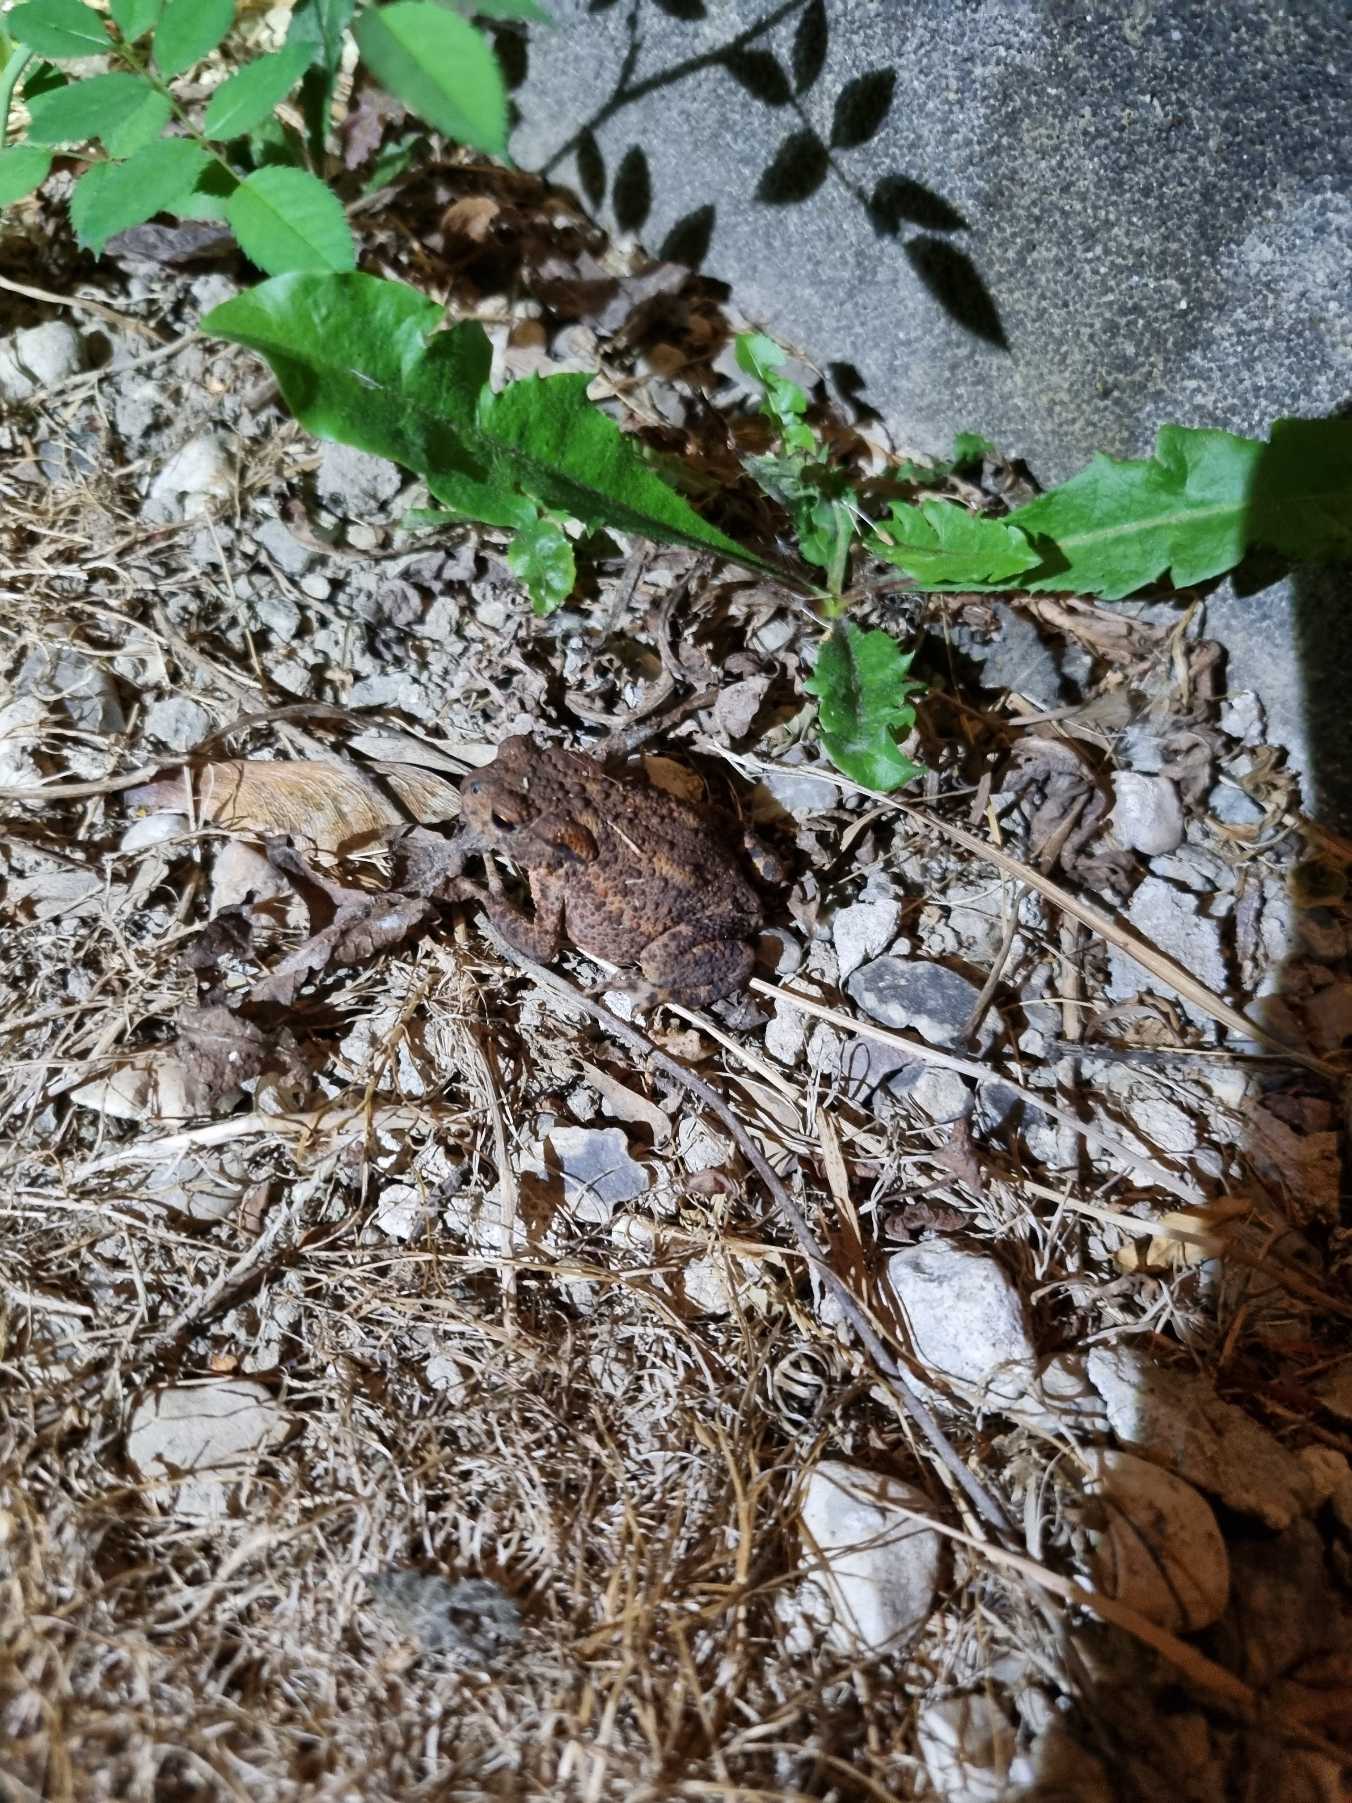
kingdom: Animalia
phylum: Chordata
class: Amphibia
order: Anura
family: Bufonidae
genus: Bufo
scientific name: Bufo bufo
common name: Skrubtudse
